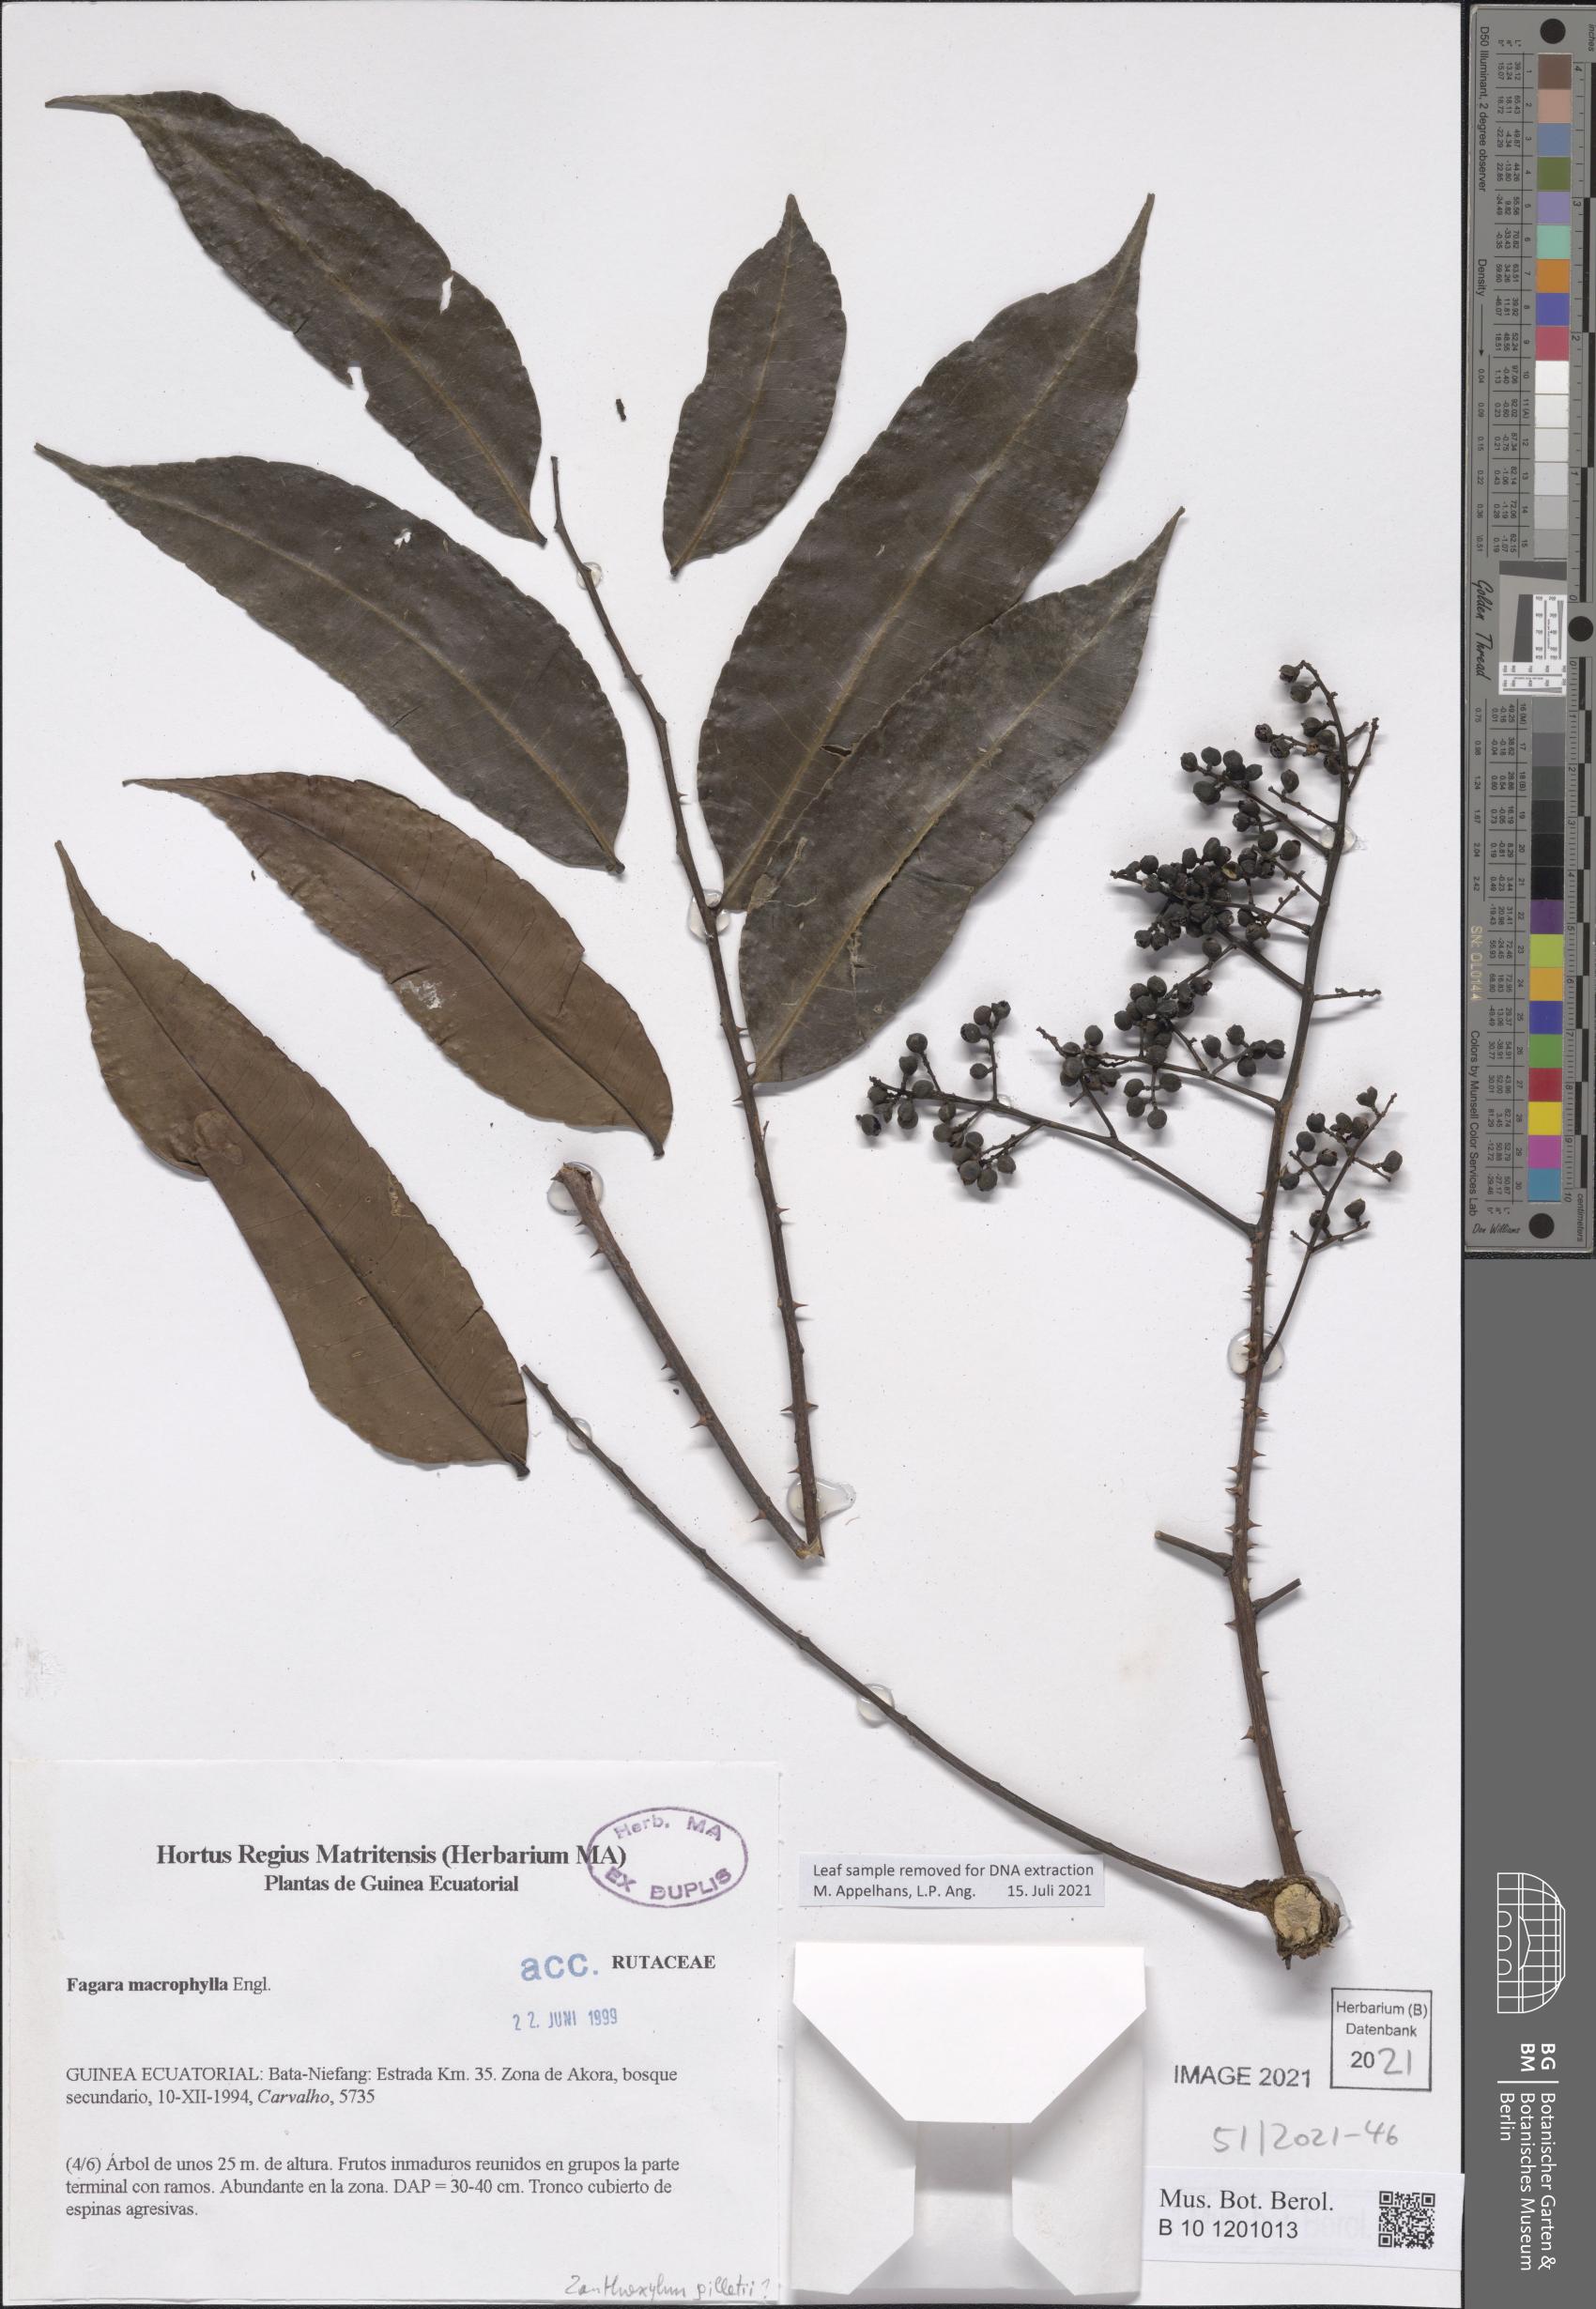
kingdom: Plantae
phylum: Tracheophyta
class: Magnoliopsida
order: Sapindales
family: Rutaceae
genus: Zanthoxylum
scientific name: Zanthoxylum gilletii
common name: African satinwood
